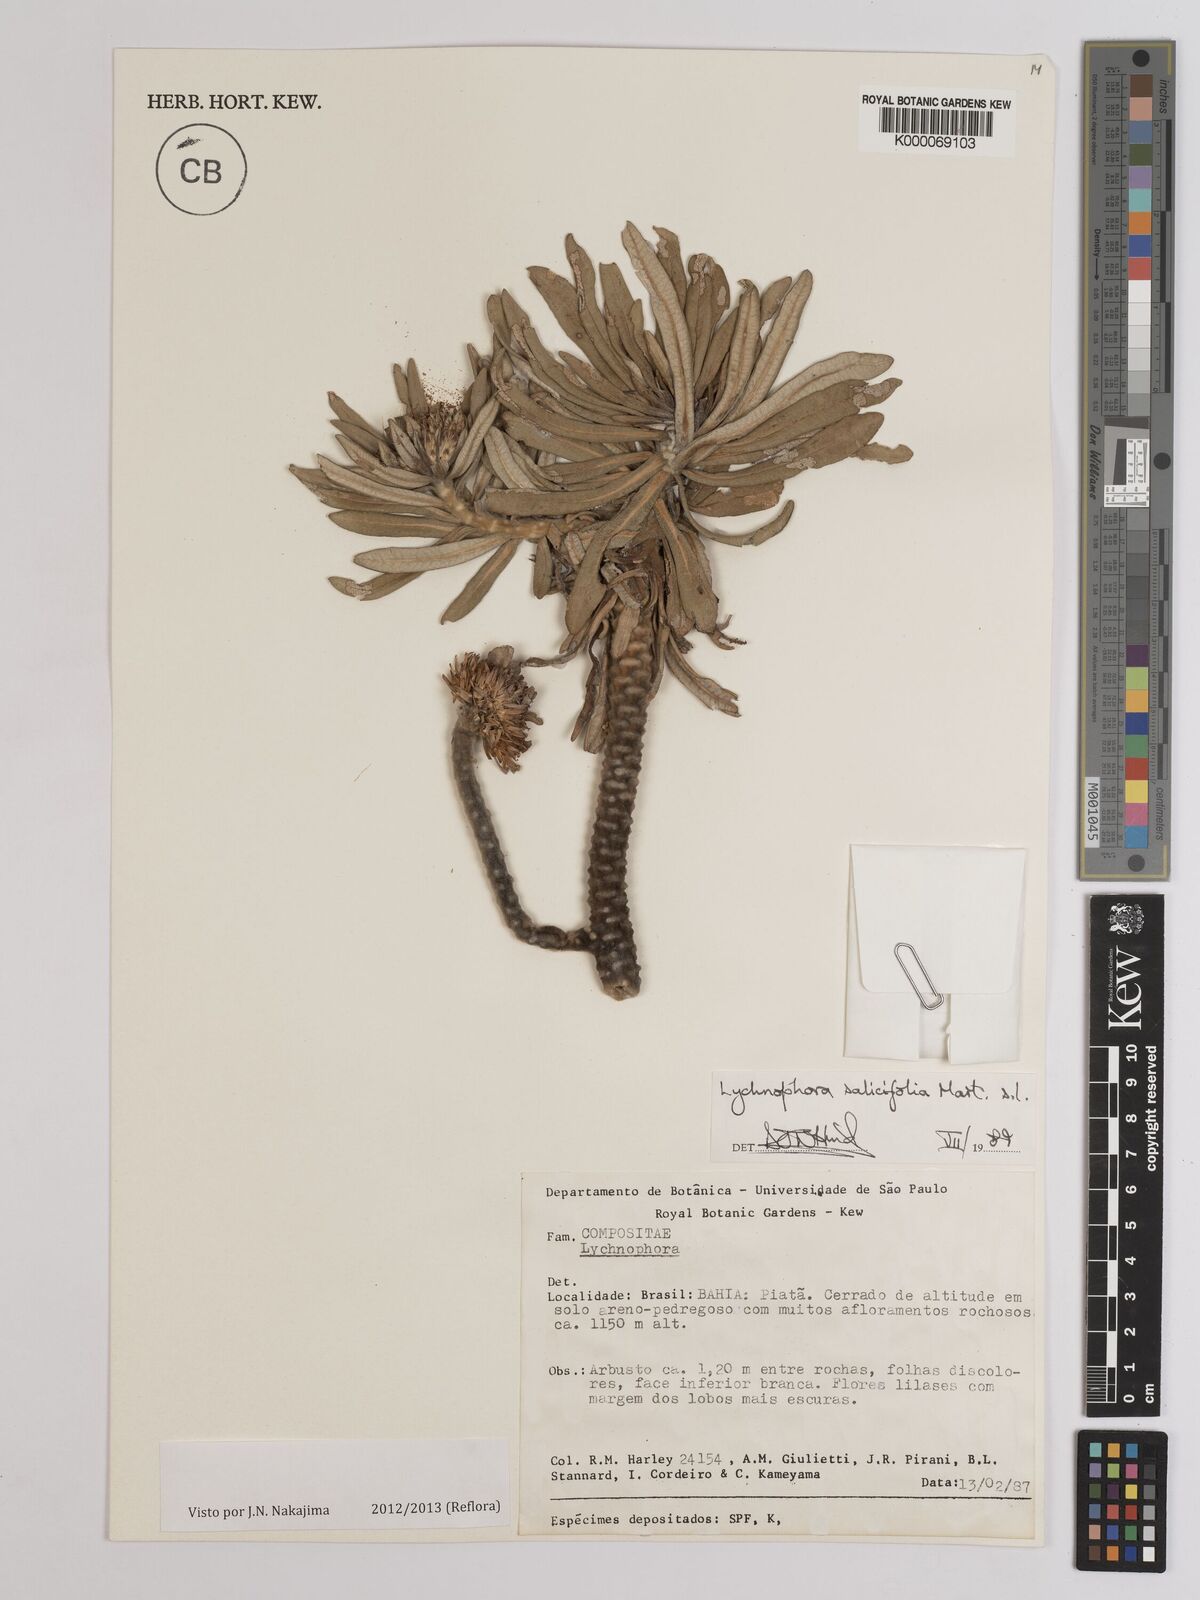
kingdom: Plantae
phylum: Tracheophyta
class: Magnoliopsida
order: Asterales
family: Asteraceae
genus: Lychnophora
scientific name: Lychnophora salicifolia
